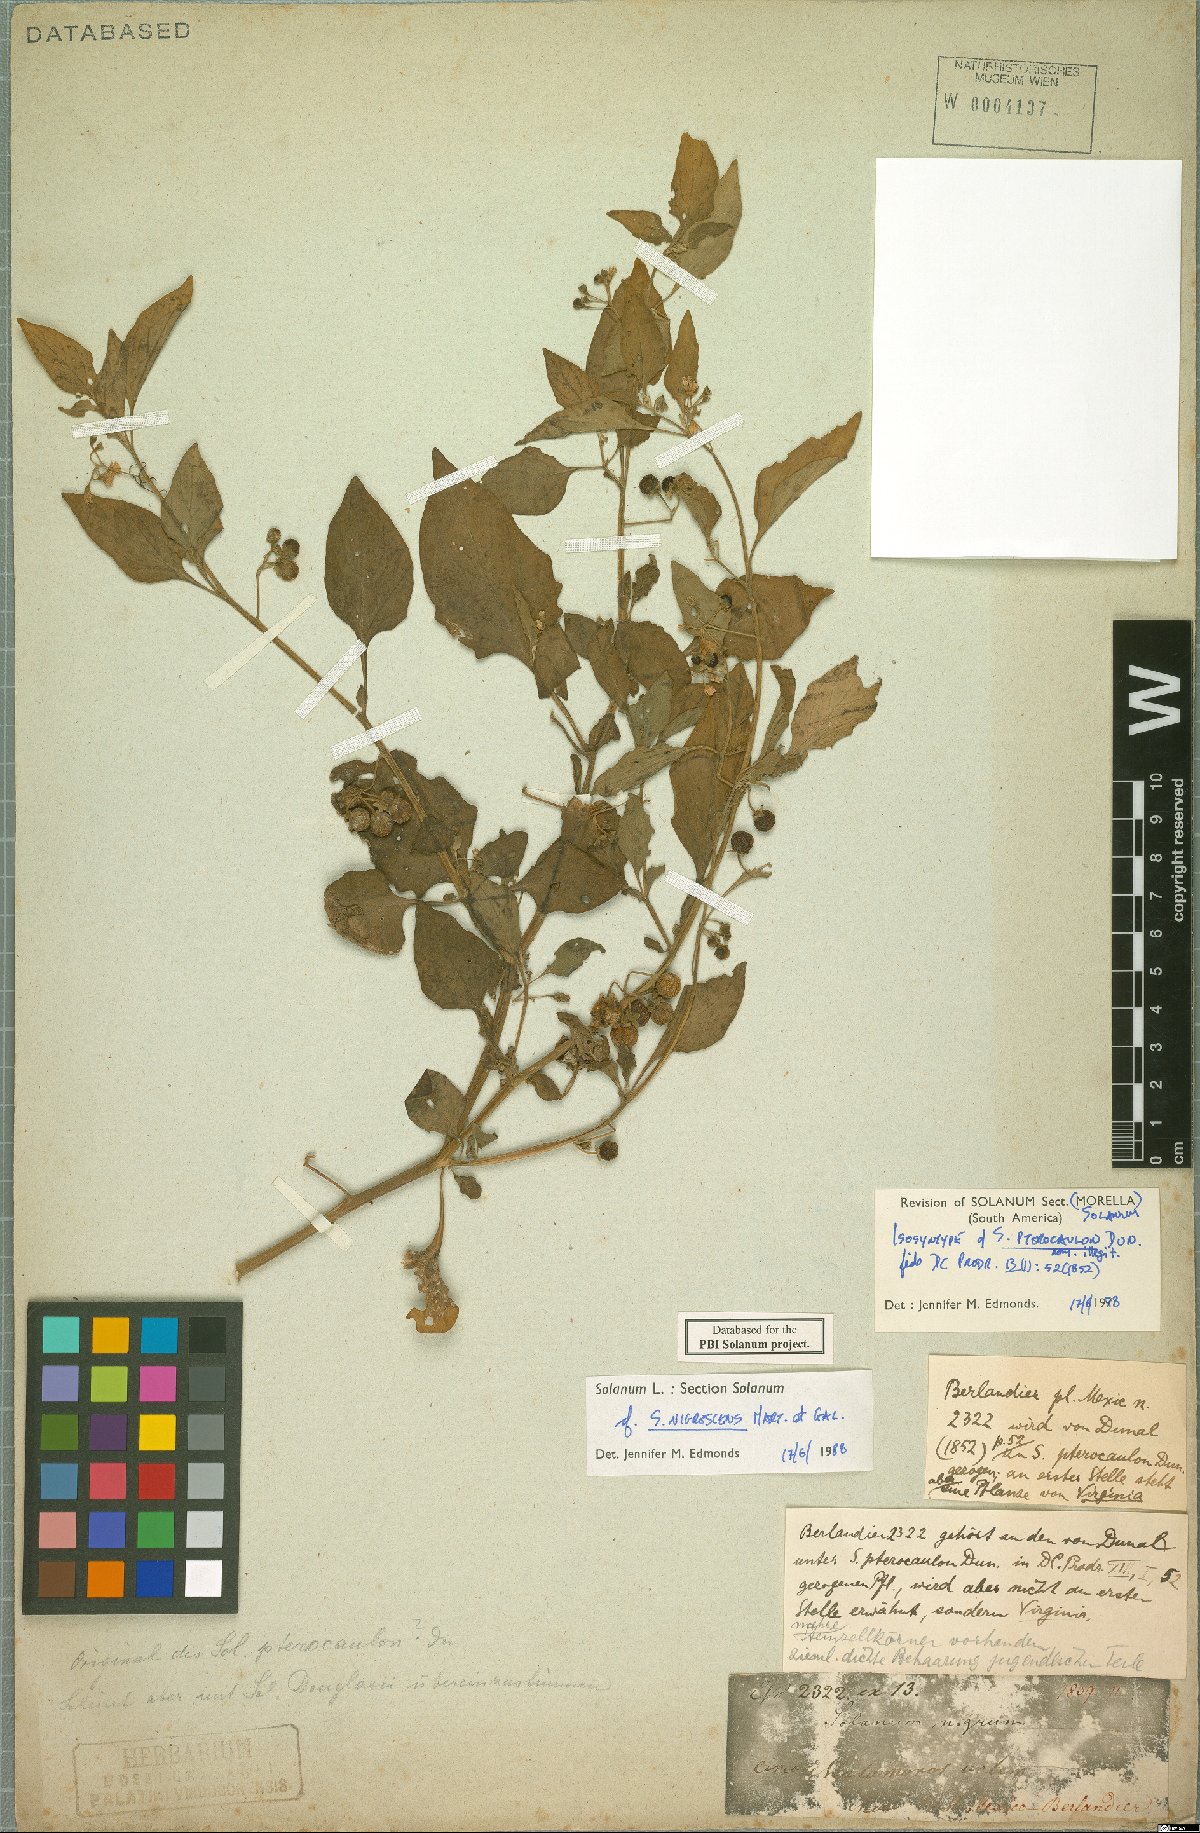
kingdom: Plantae
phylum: Tracheophyta
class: Magnoliopsida
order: Solanales
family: Solanaceae
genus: Solanum
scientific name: Solanum nigrescens
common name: Divine nightshade
